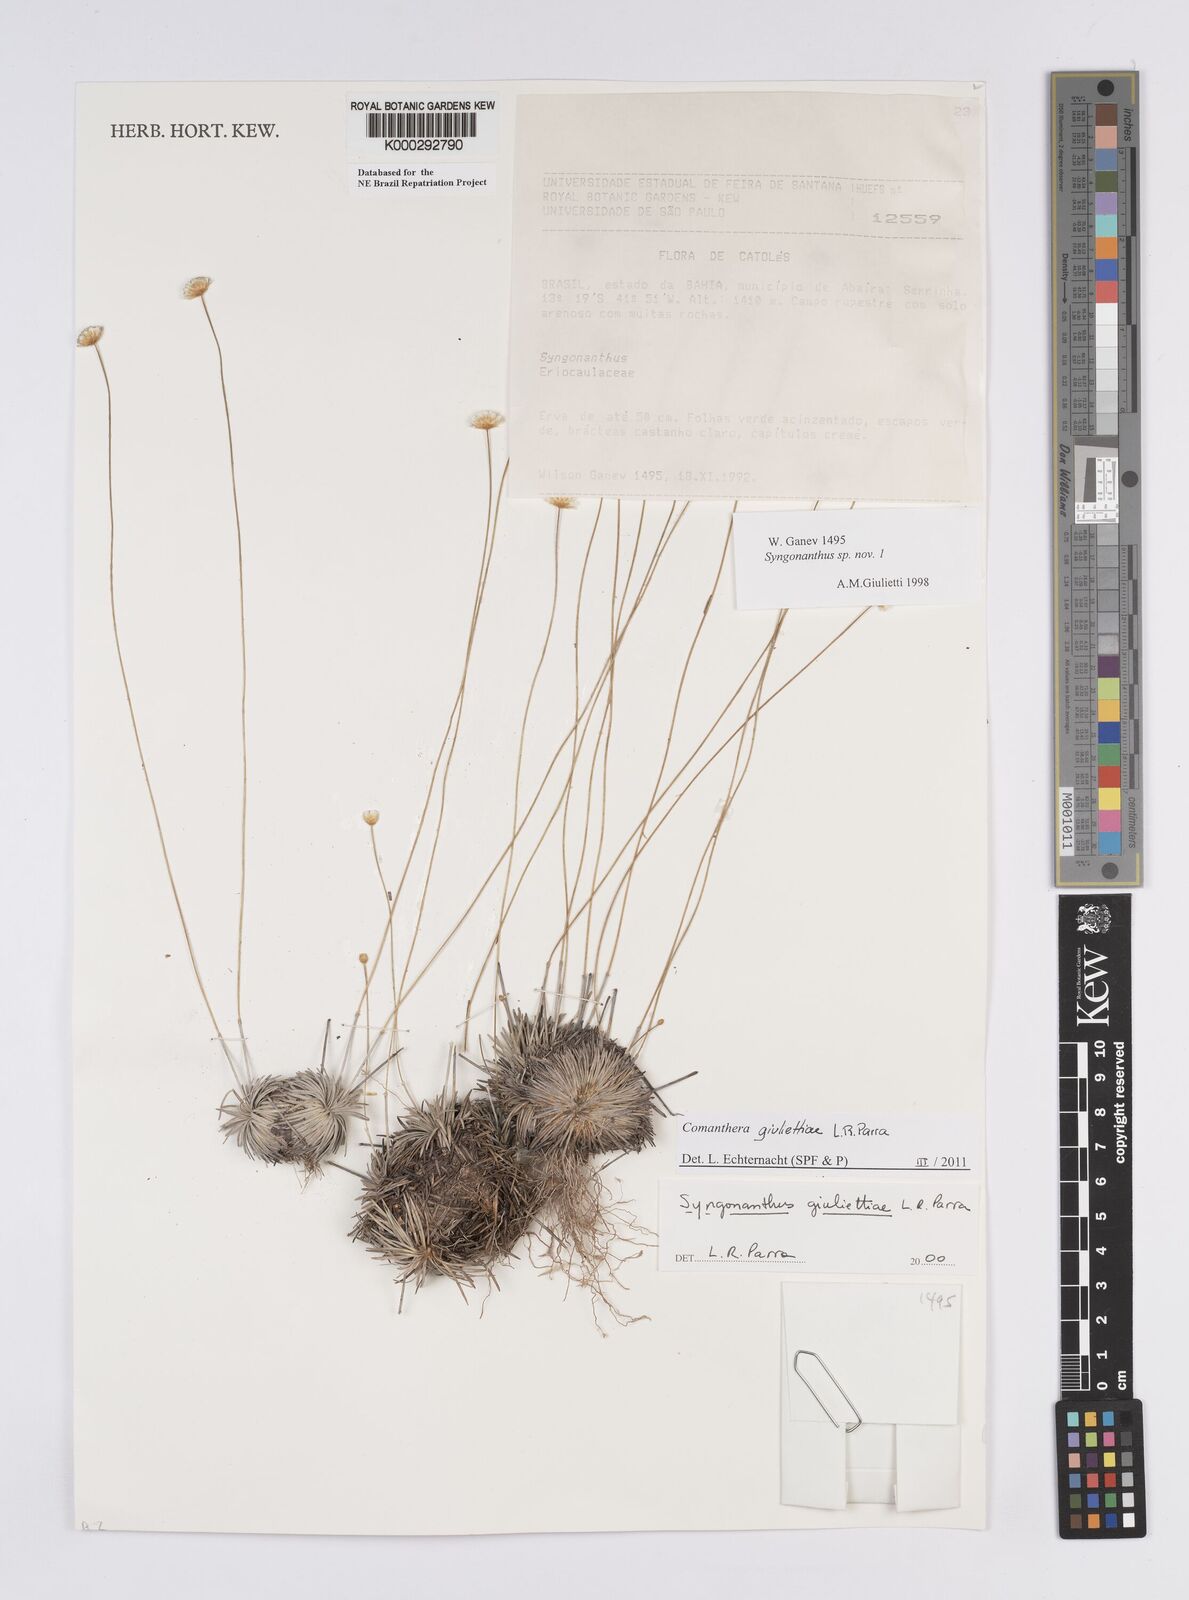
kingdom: Plantae
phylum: Tracheophyta
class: Liliopsida
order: Poales
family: Eriocaulaceae
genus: Syngonanthus
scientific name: Syngonanthus
